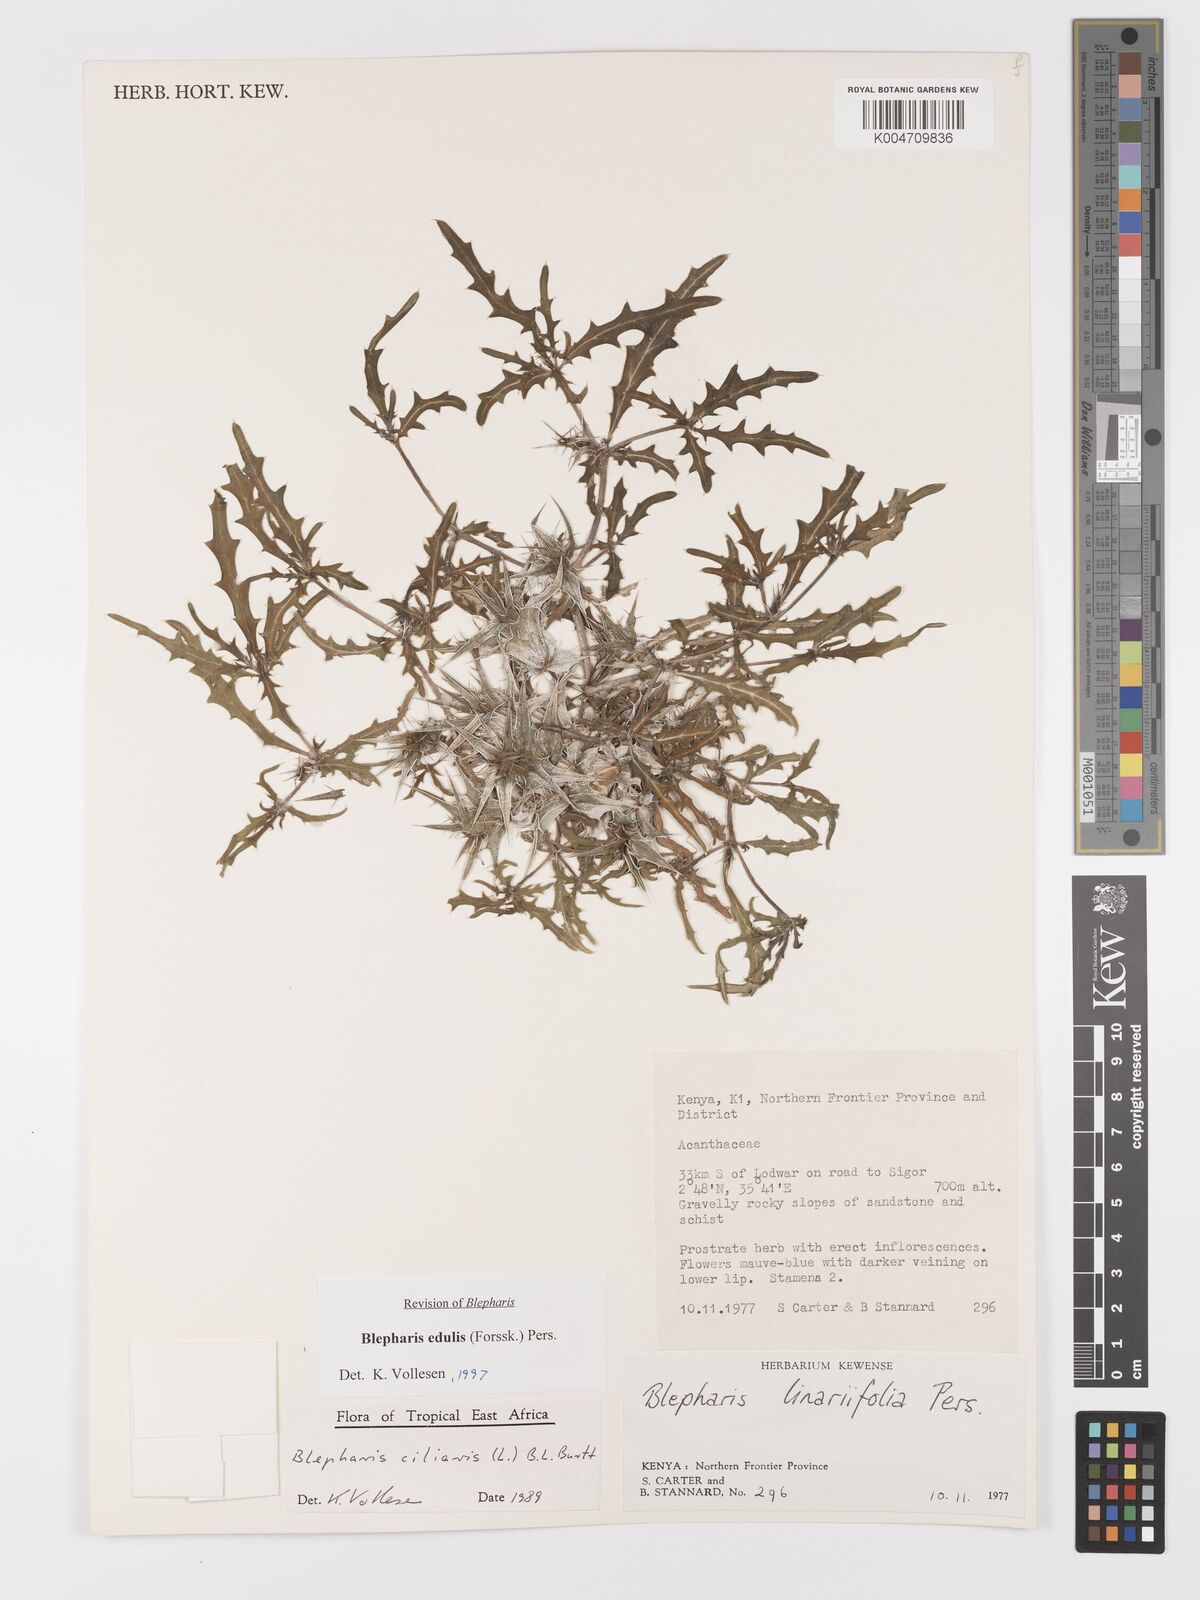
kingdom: Plantae
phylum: Tracheophyta
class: Magnoliopsida
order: Lamiales
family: Acanthaceae
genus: Blepharis
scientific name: Blepharis edulis
